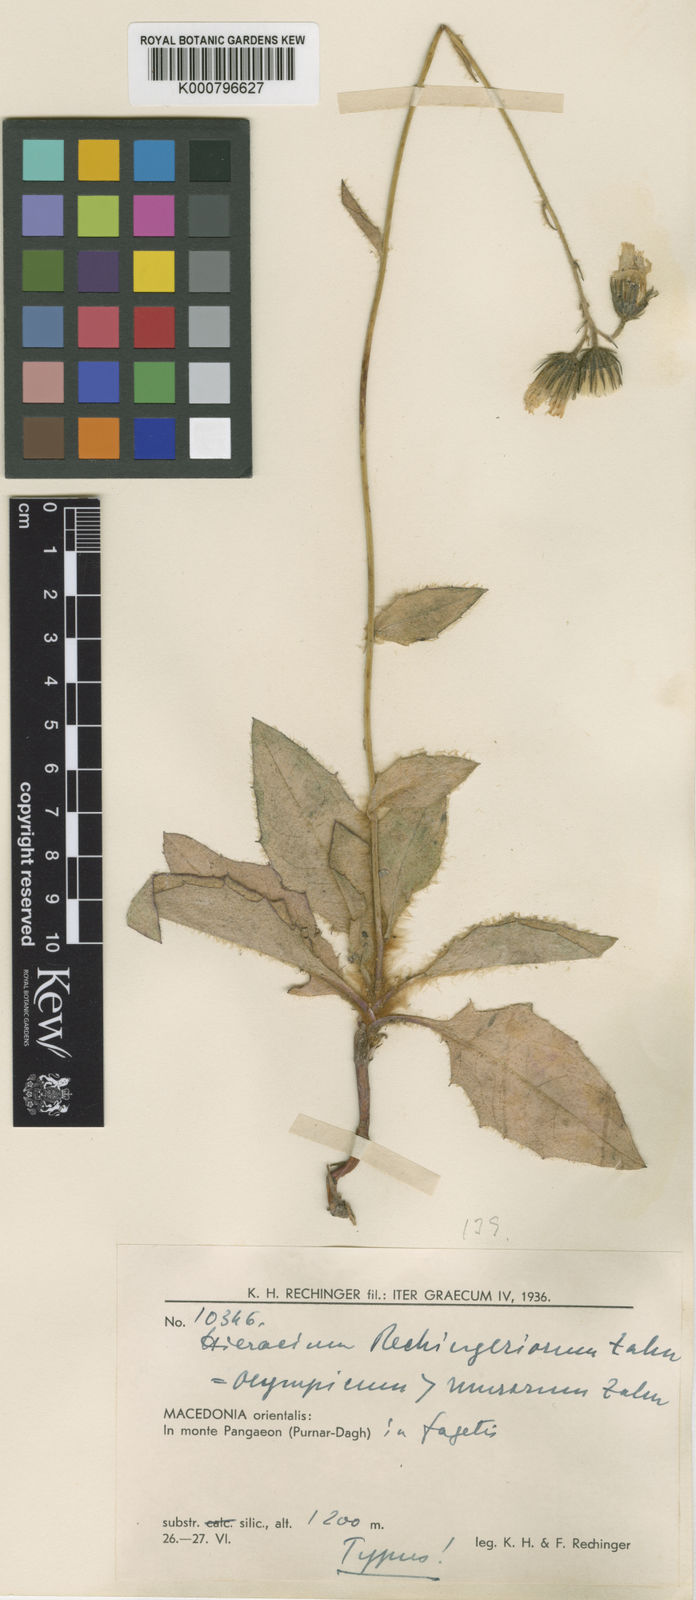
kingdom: Plantae
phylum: Tracheophyta
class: Magnoliopsida
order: Asterales
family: Asteraceae
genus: Hieracium
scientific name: Hieracium murorum
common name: Wall hawkweed
